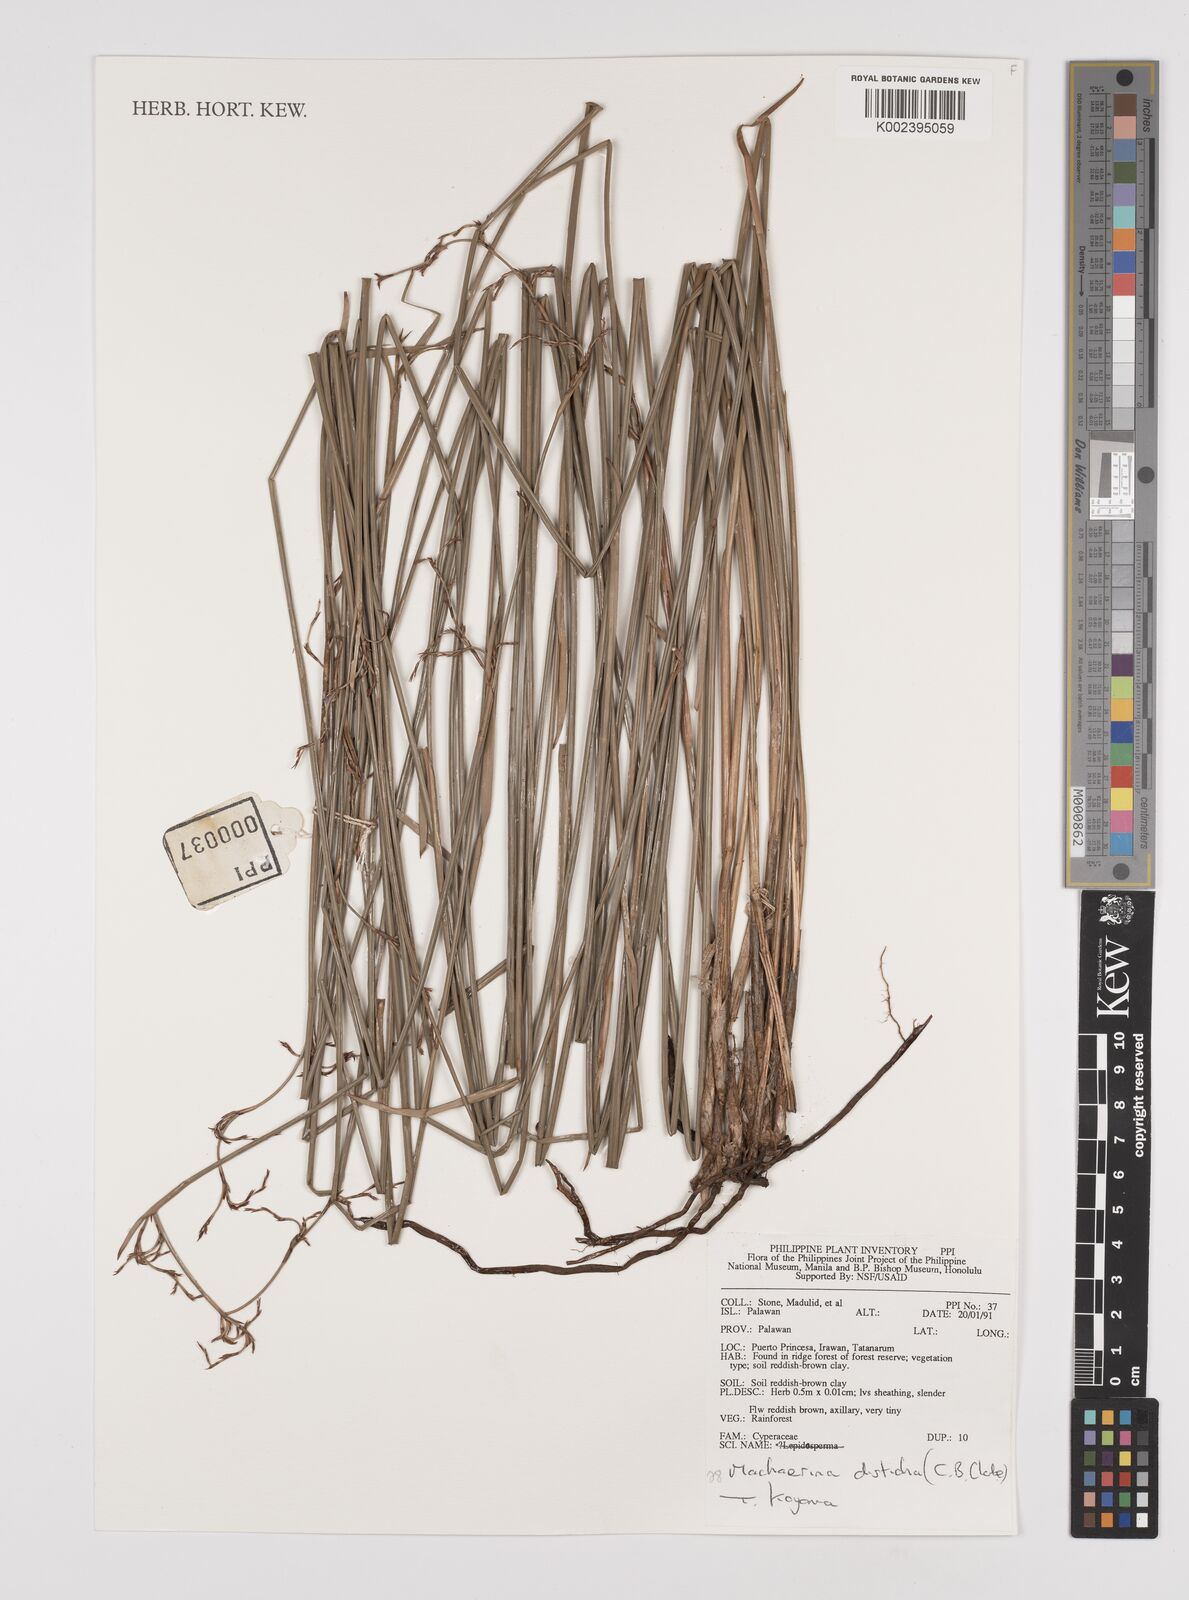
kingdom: Plantae
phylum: Tracheophyta
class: Liliopsida
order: Poales
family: Cyperaceae
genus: Machaerina
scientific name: Machaerina disticha
